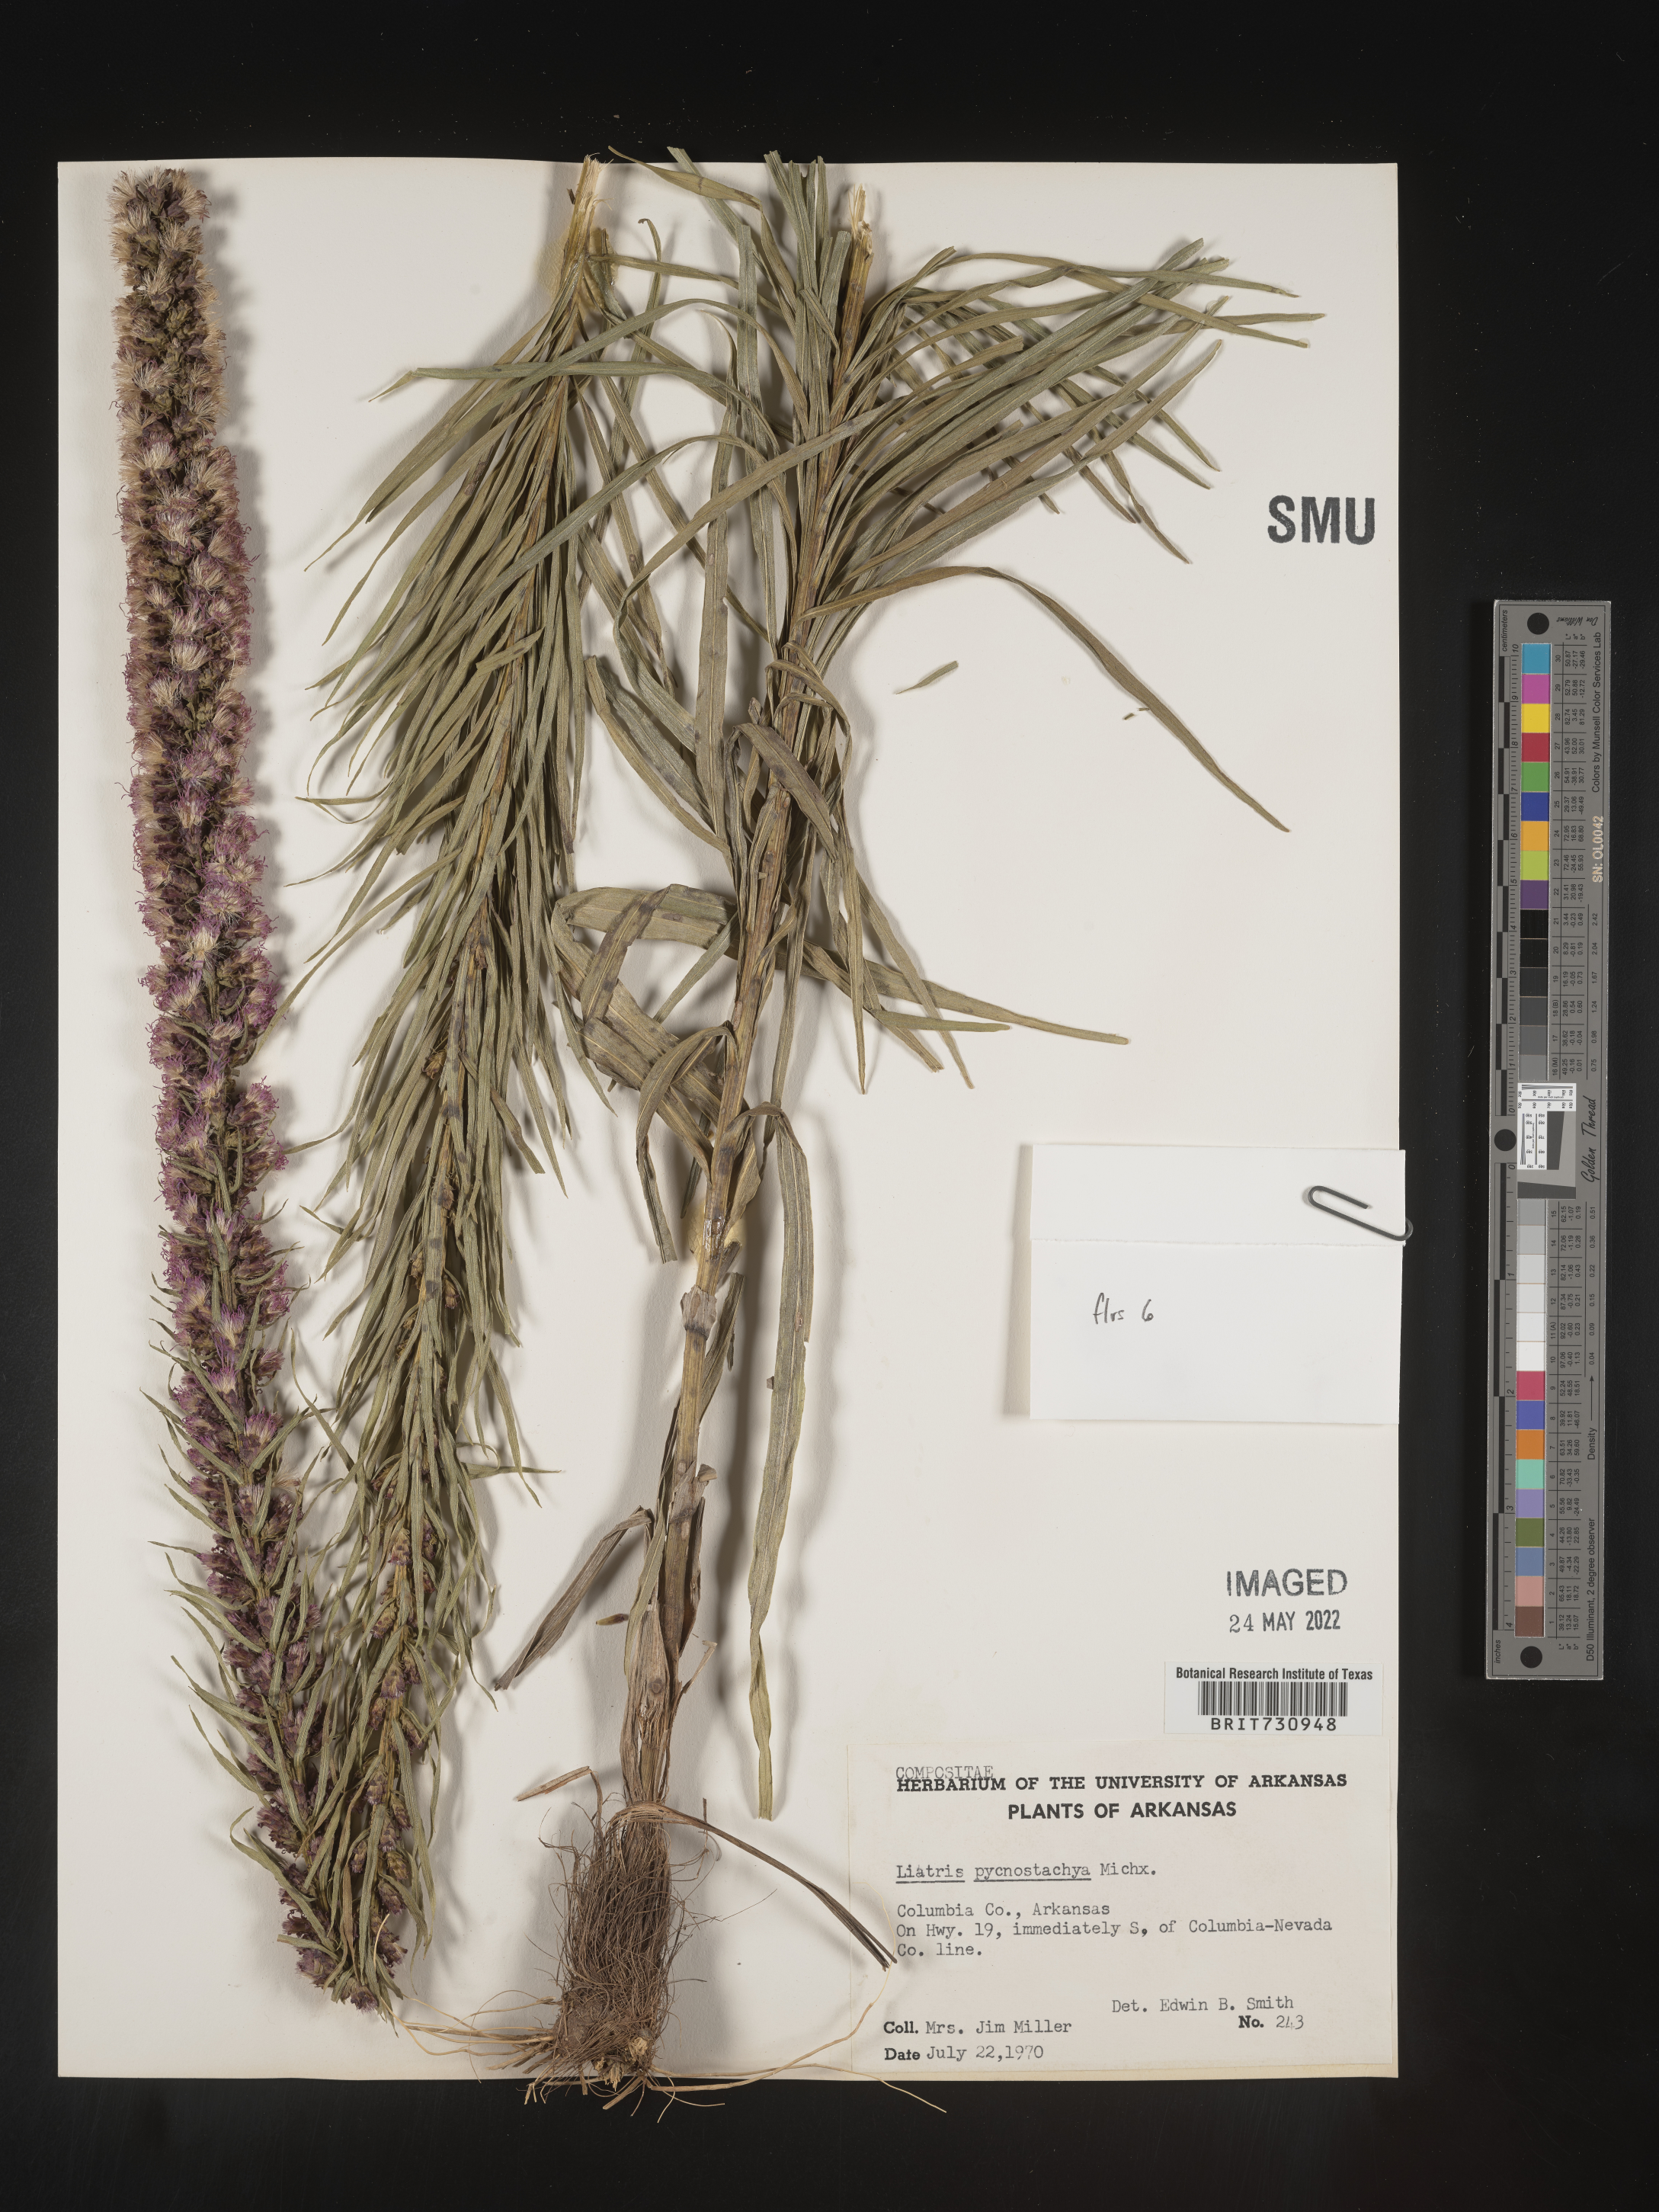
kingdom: Plantae
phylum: Tracheophyta
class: Magnoliopsida
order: Asterales
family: Asteraceae
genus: Liatris
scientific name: Liatris pycnostachya
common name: Cattail gayfeather
